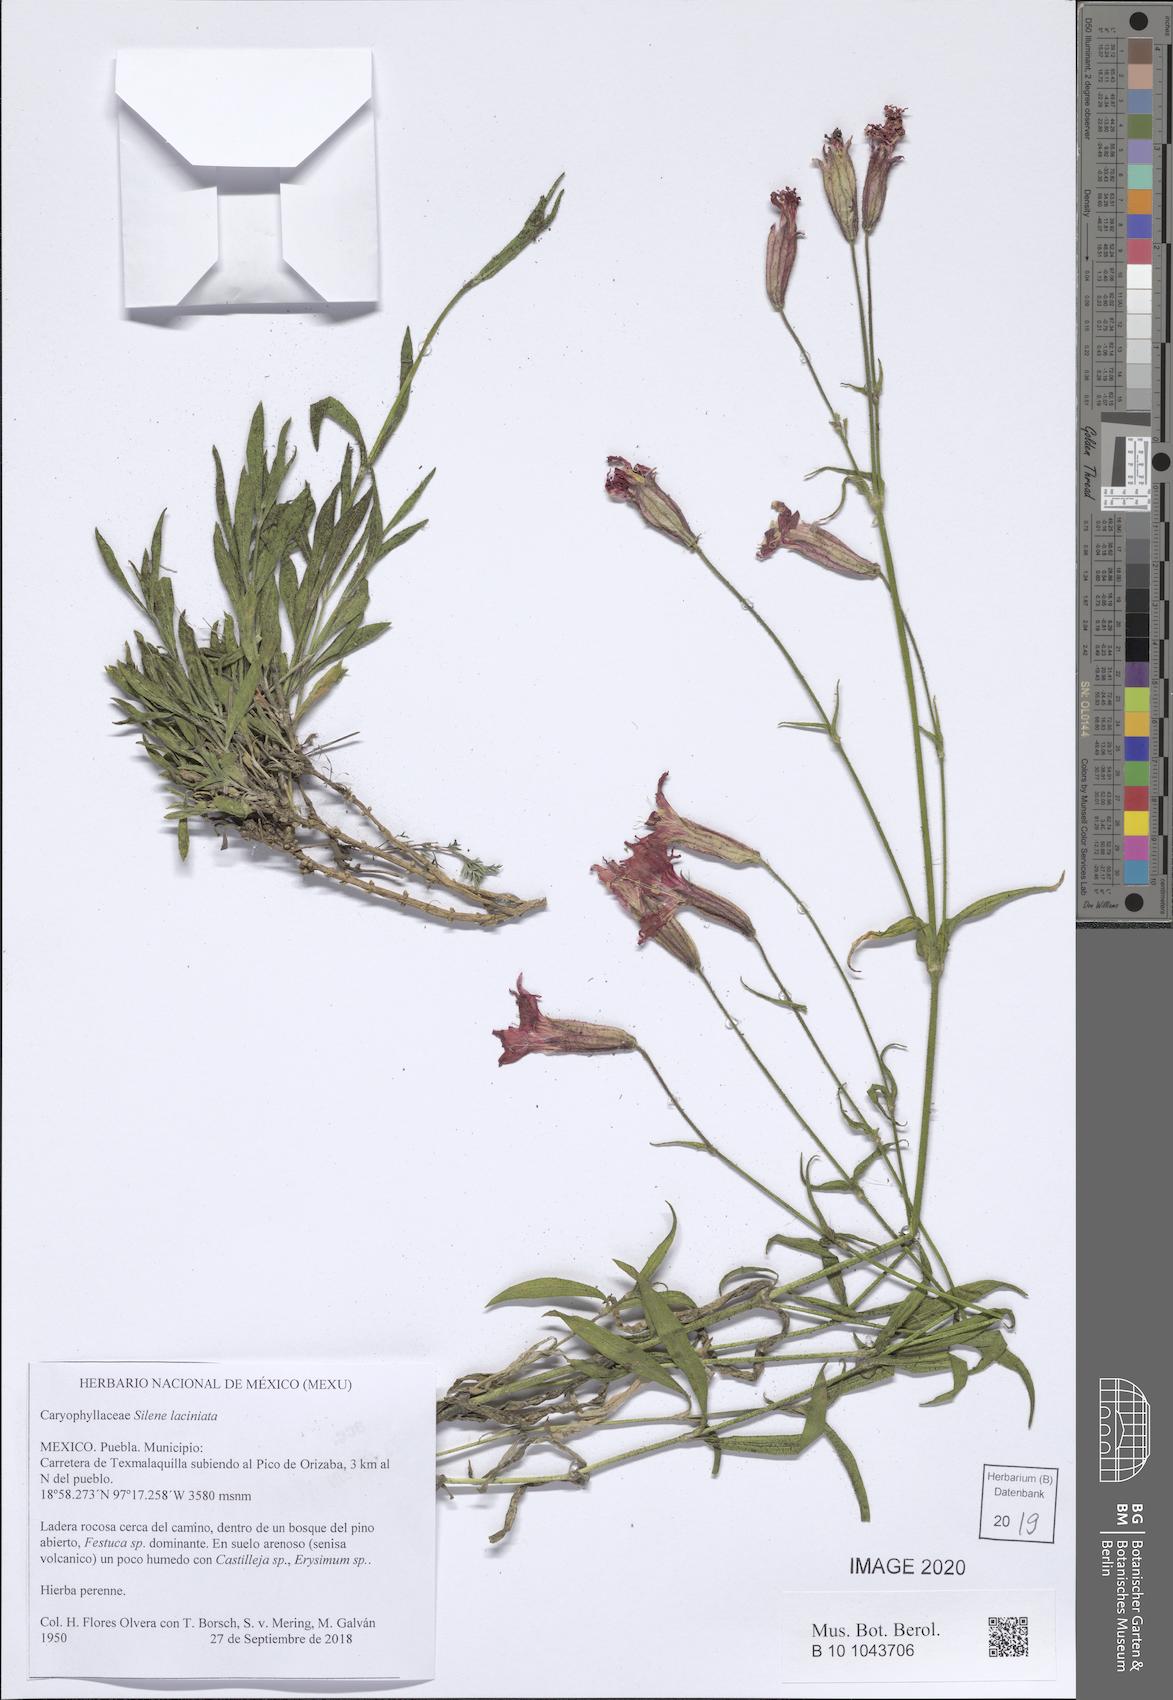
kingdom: Plantae
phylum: Tracheophyta
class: Magnoliopsida
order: Caryophyllales
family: Caryophyllaceae
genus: Silene
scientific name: Silene laciniata
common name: Indian-pink
